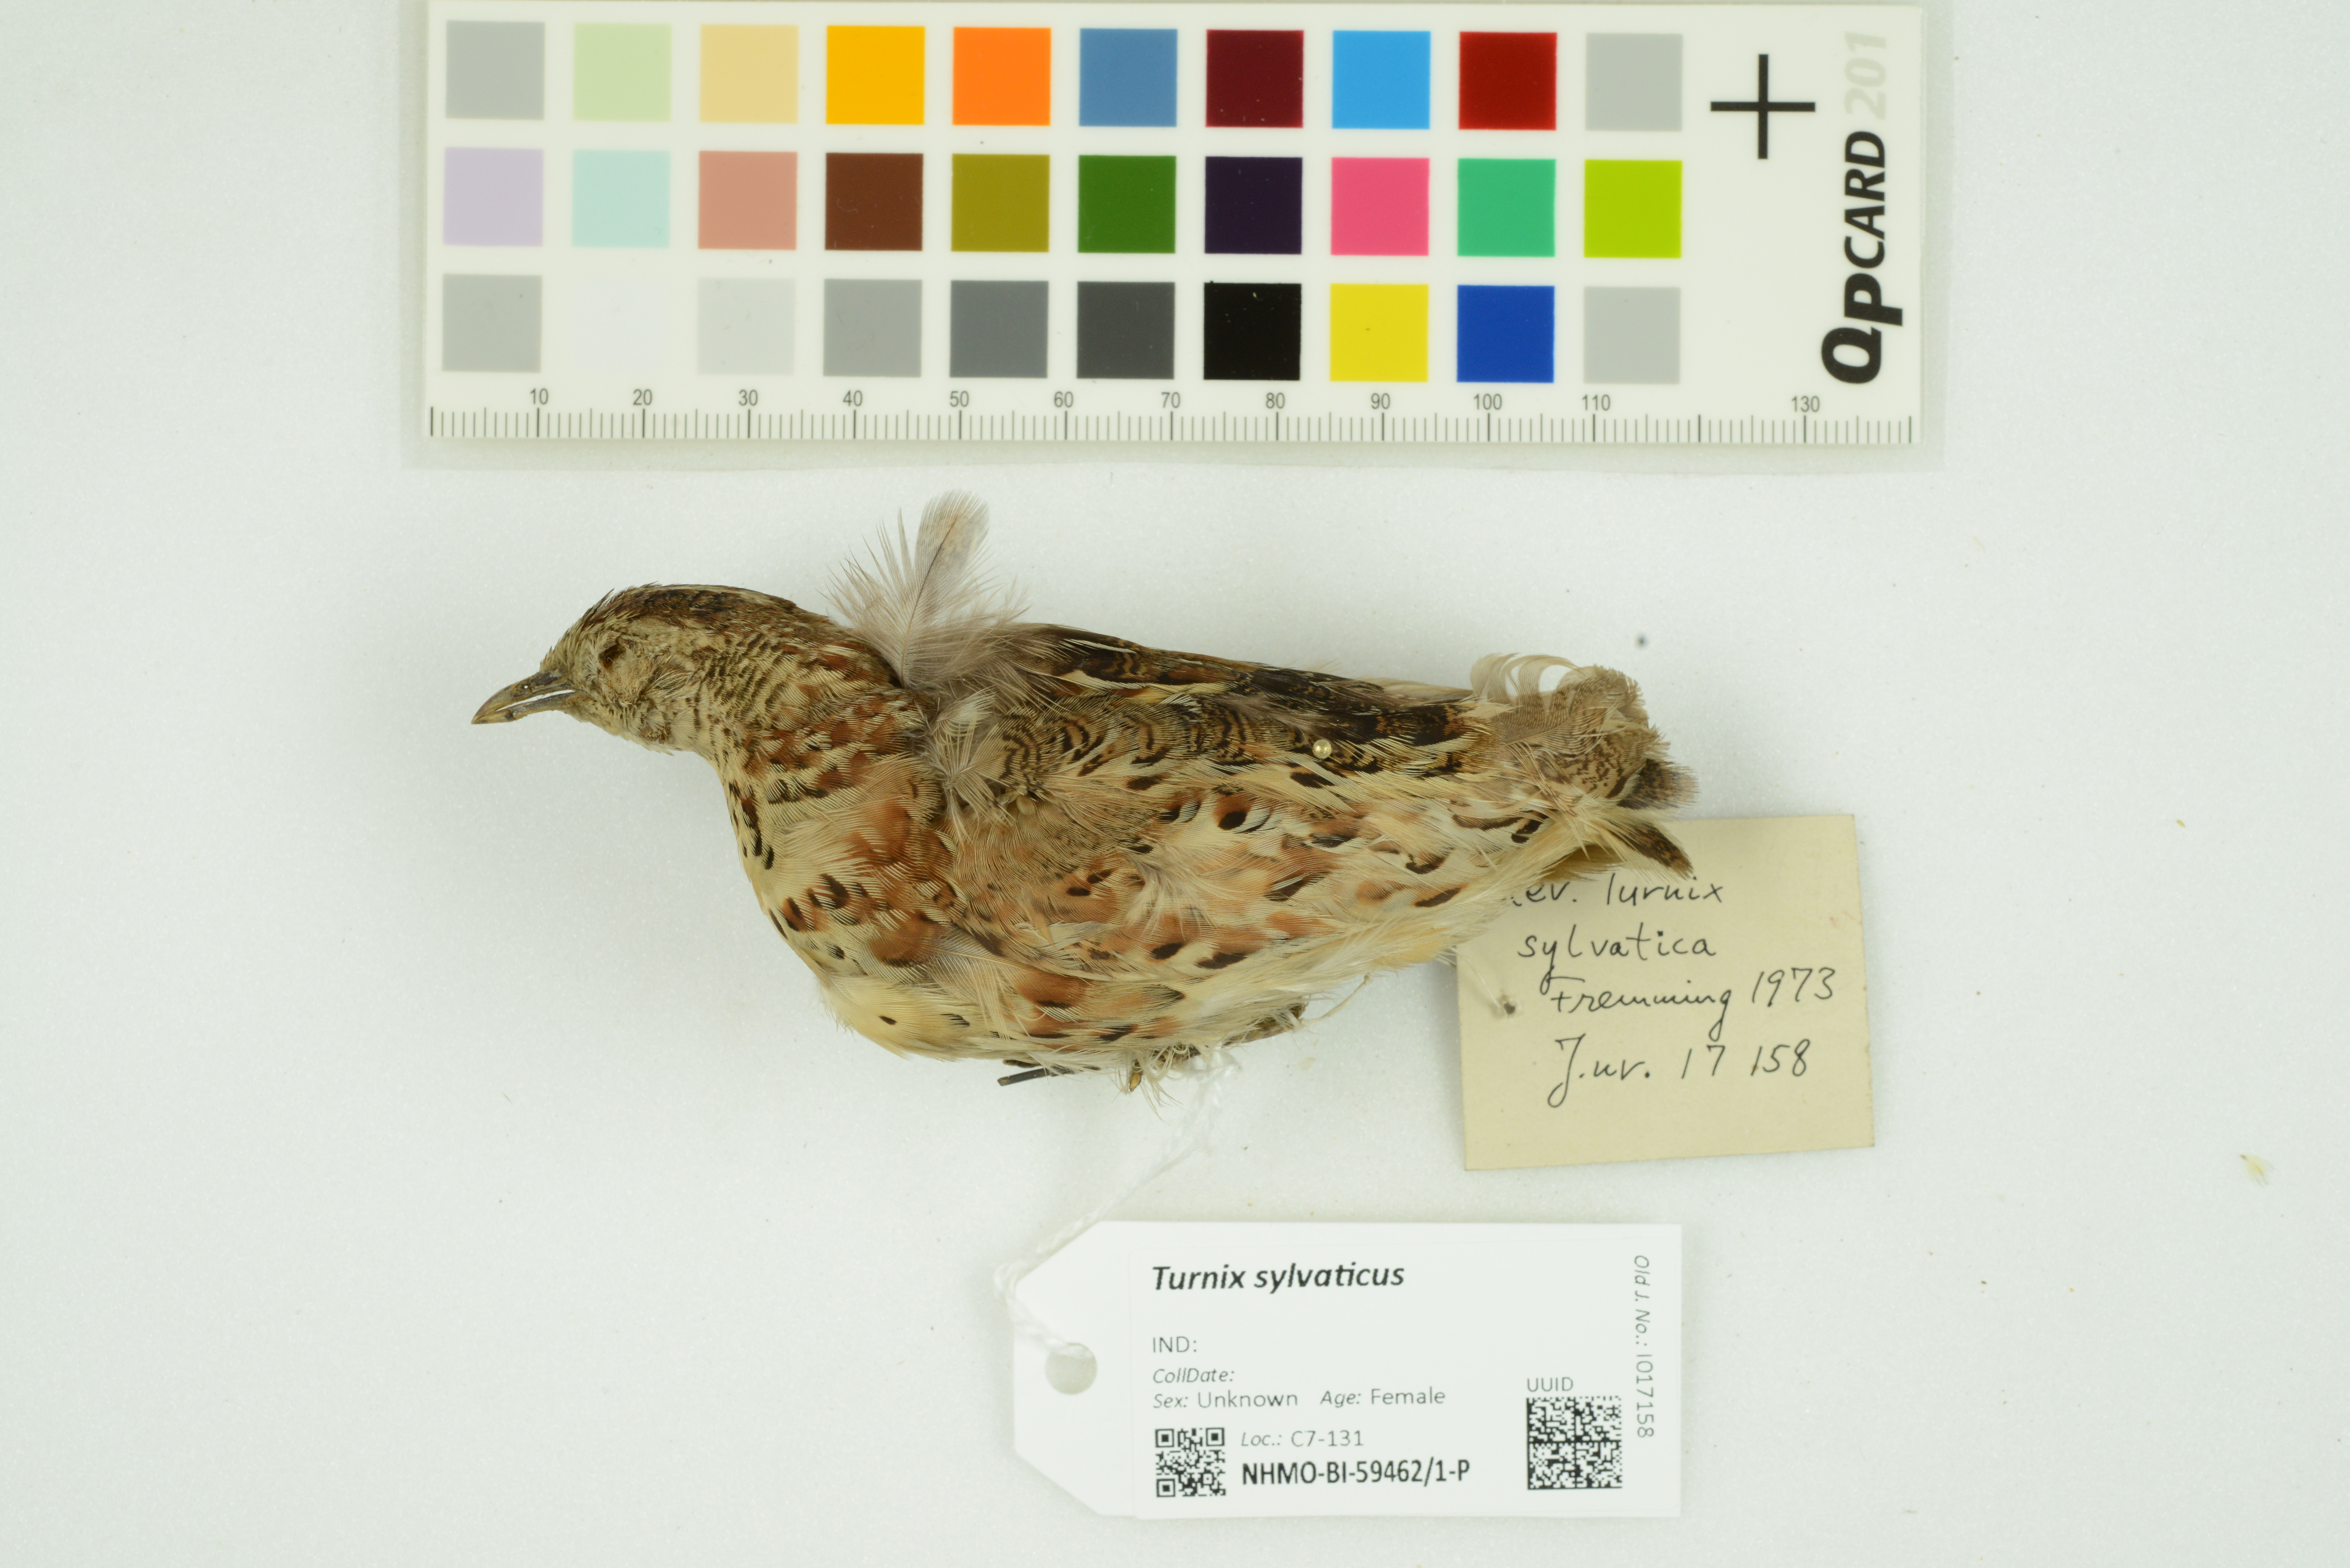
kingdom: Animalia
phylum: Chordata
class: Aves
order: Charadriiformes
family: Turnicidae
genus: Turnix
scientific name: Turnix sylvaticus
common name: Common buttonquail
